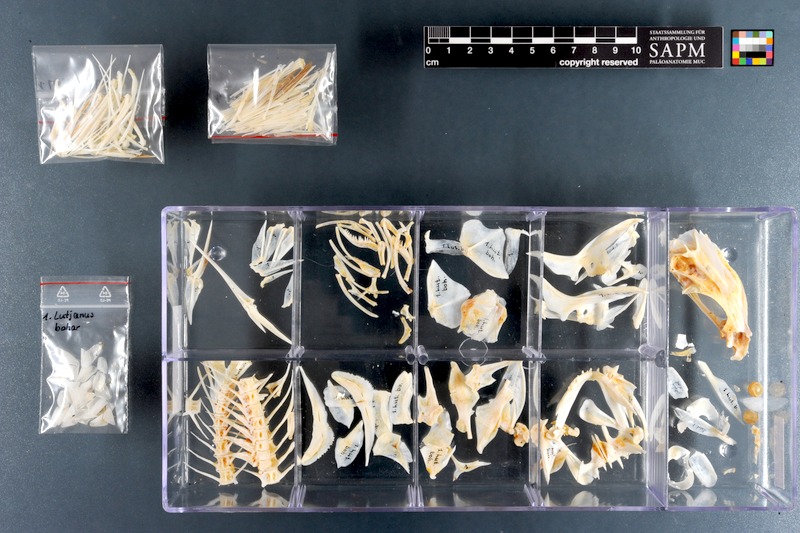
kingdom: Animalia
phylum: Chordata
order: Perciformes
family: Lutjanidae
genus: Lutjanus
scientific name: Lutjanus bohar
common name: Red bass
